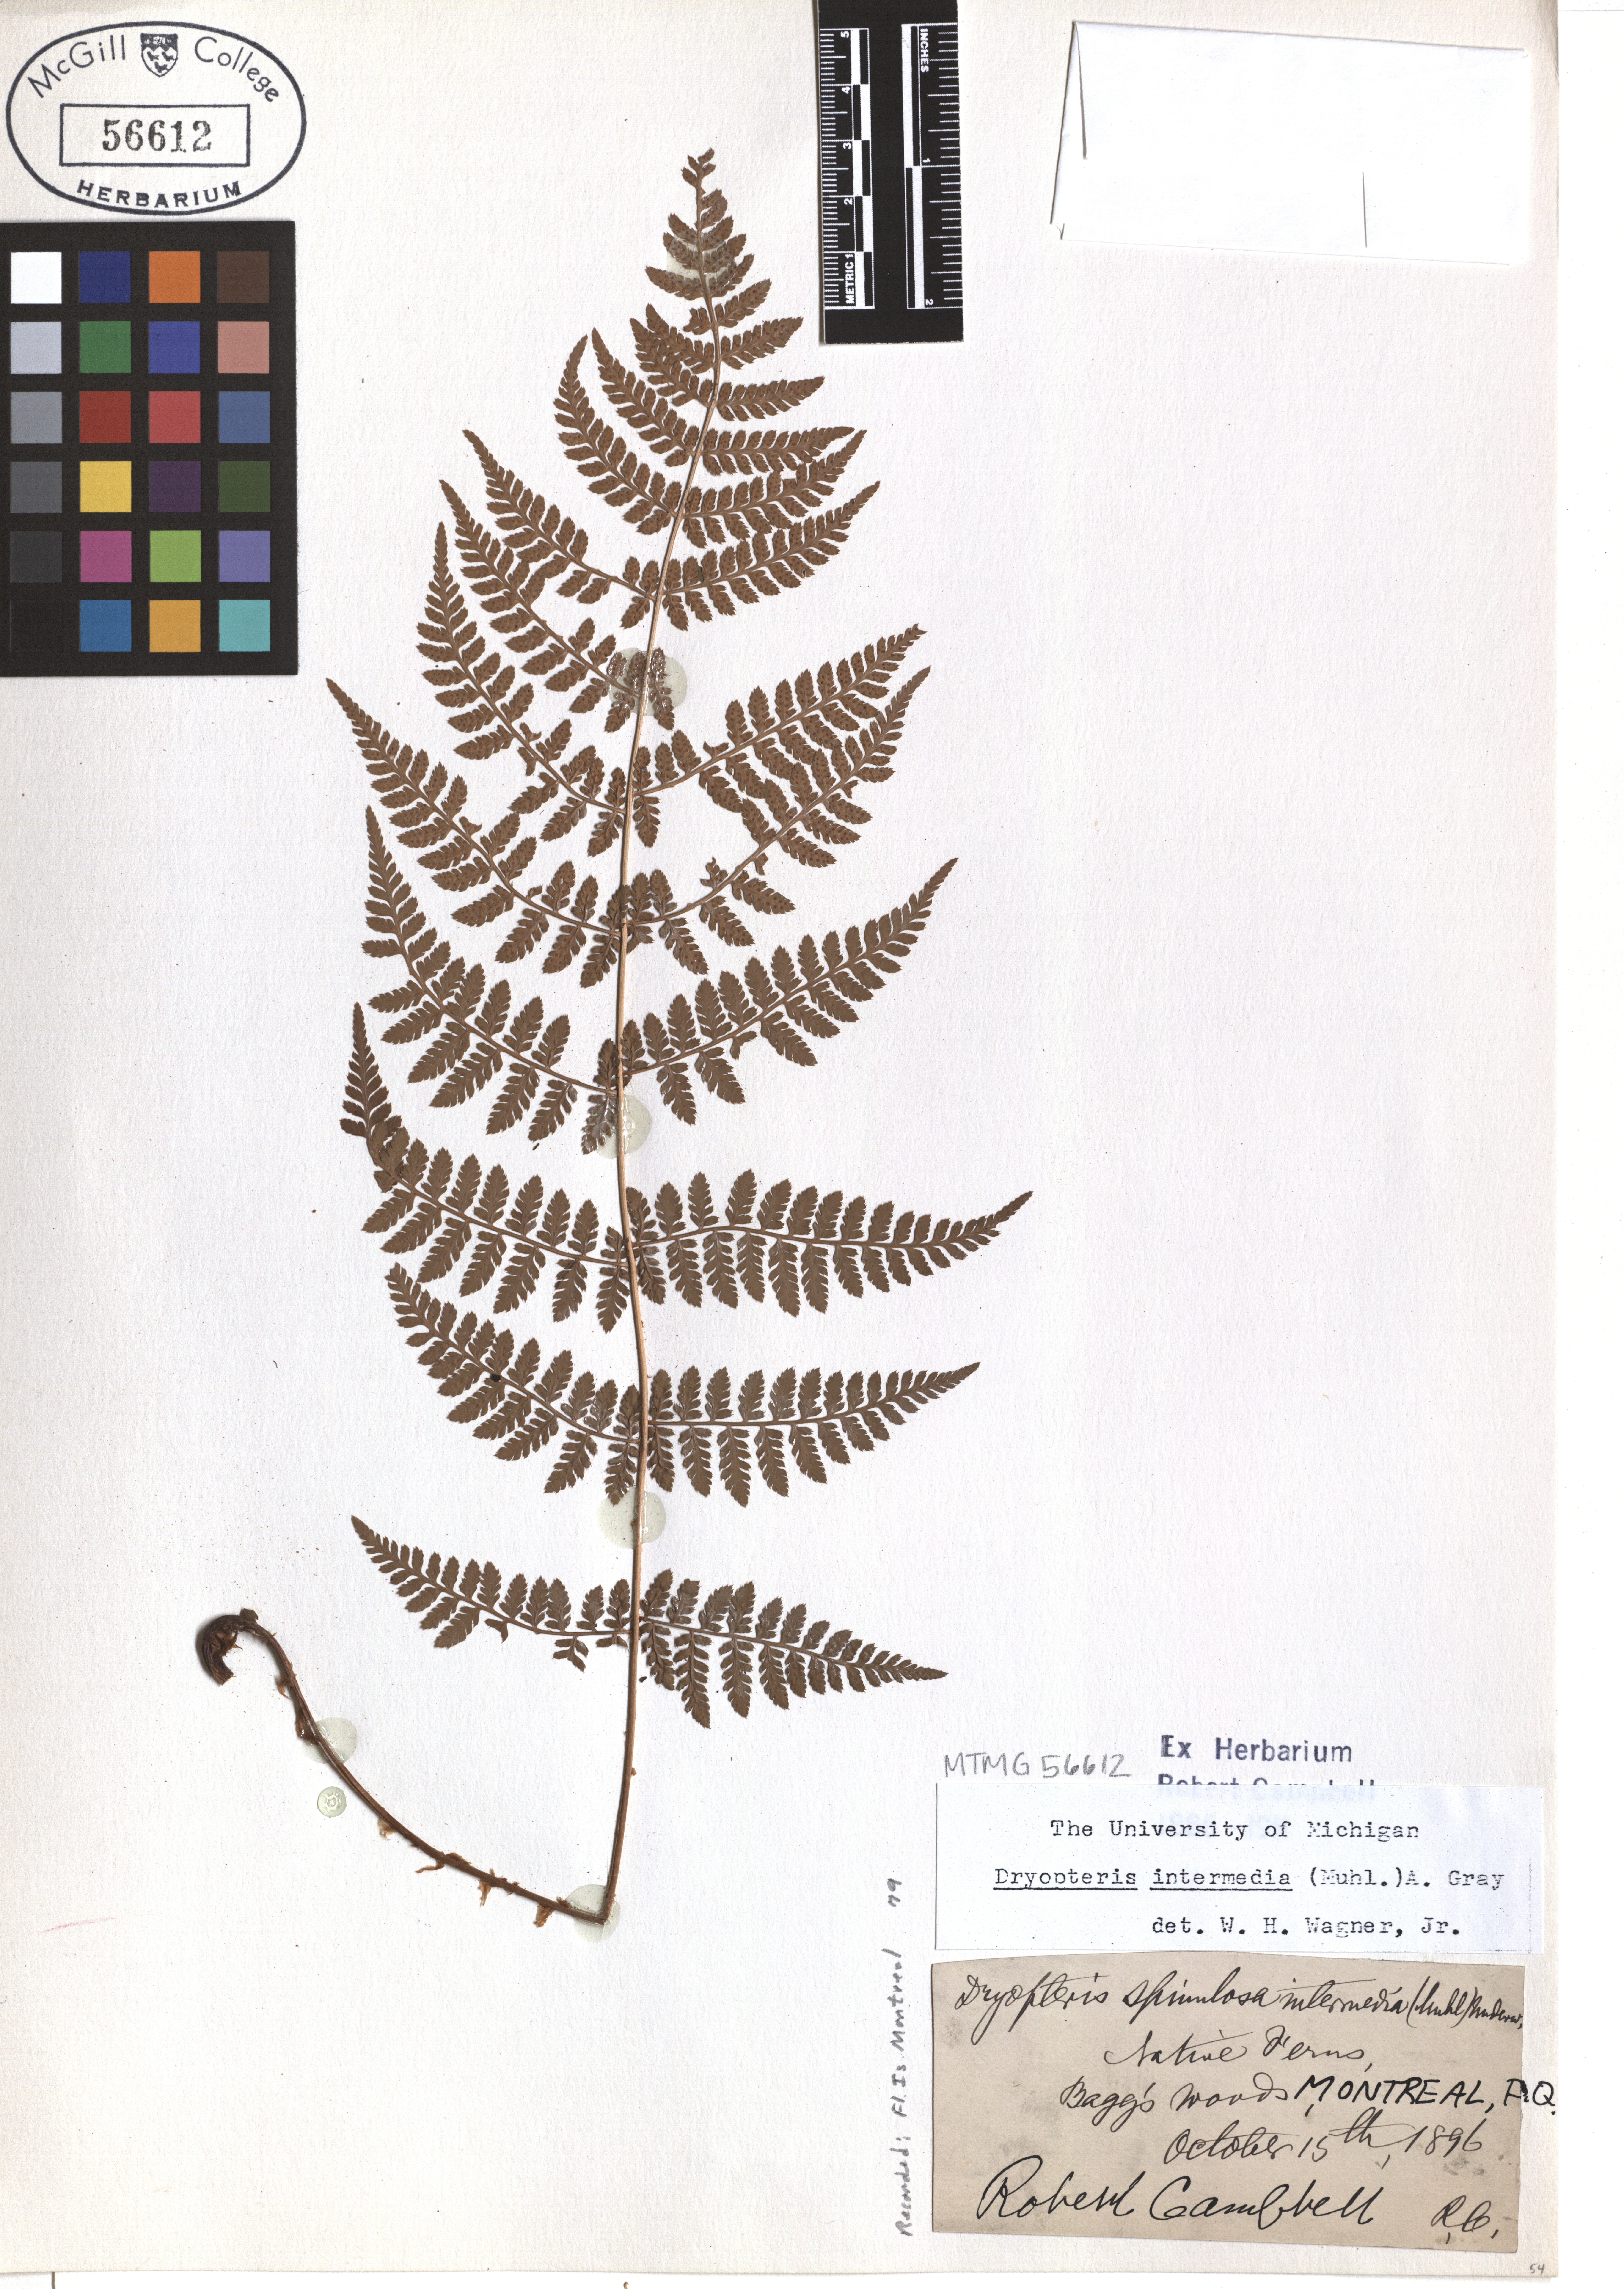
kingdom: Plantae
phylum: Tracheophyta
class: Polypodiopsida
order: Polypodiales
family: Dryopteridaceae
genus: Dryopteris
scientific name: Dryopteris intermedia
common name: Evergreen wood fern
